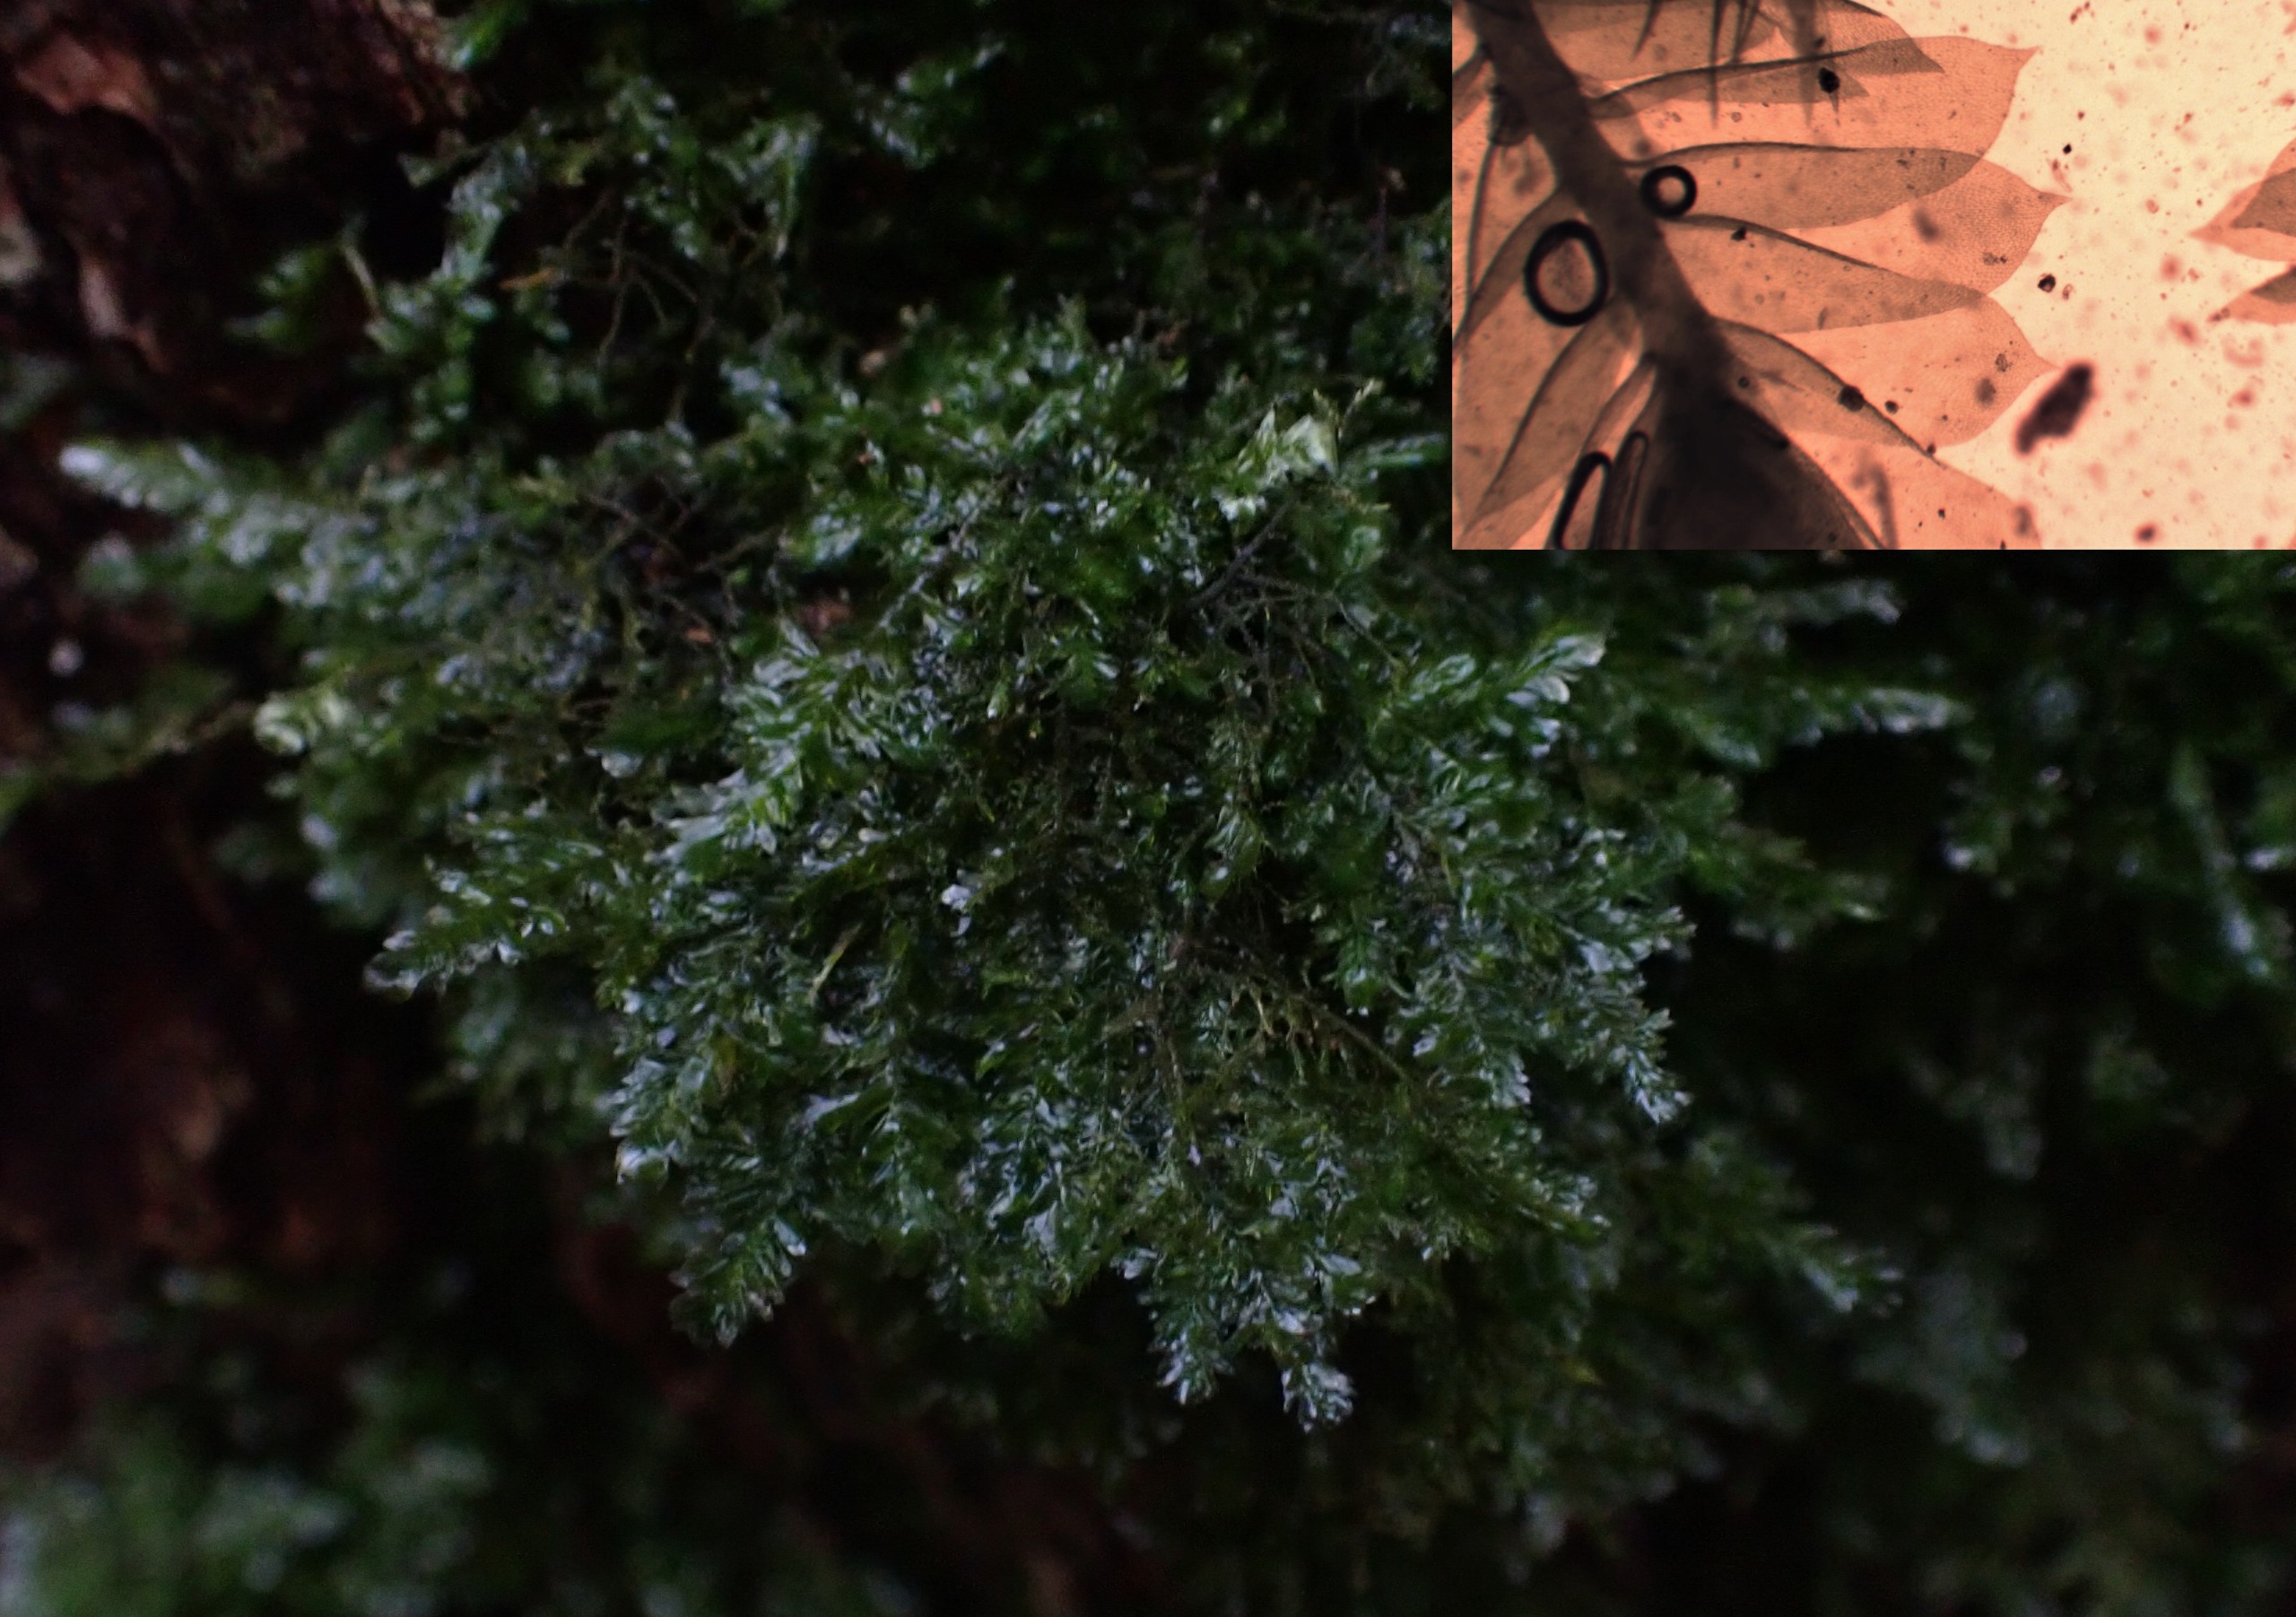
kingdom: Plantae
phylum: Bryophyta
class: Bryopsida
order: Hypnales
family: Neckeraceae
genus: Alleniella
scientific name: Alleniella complanata
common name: Almindelig fladmos
